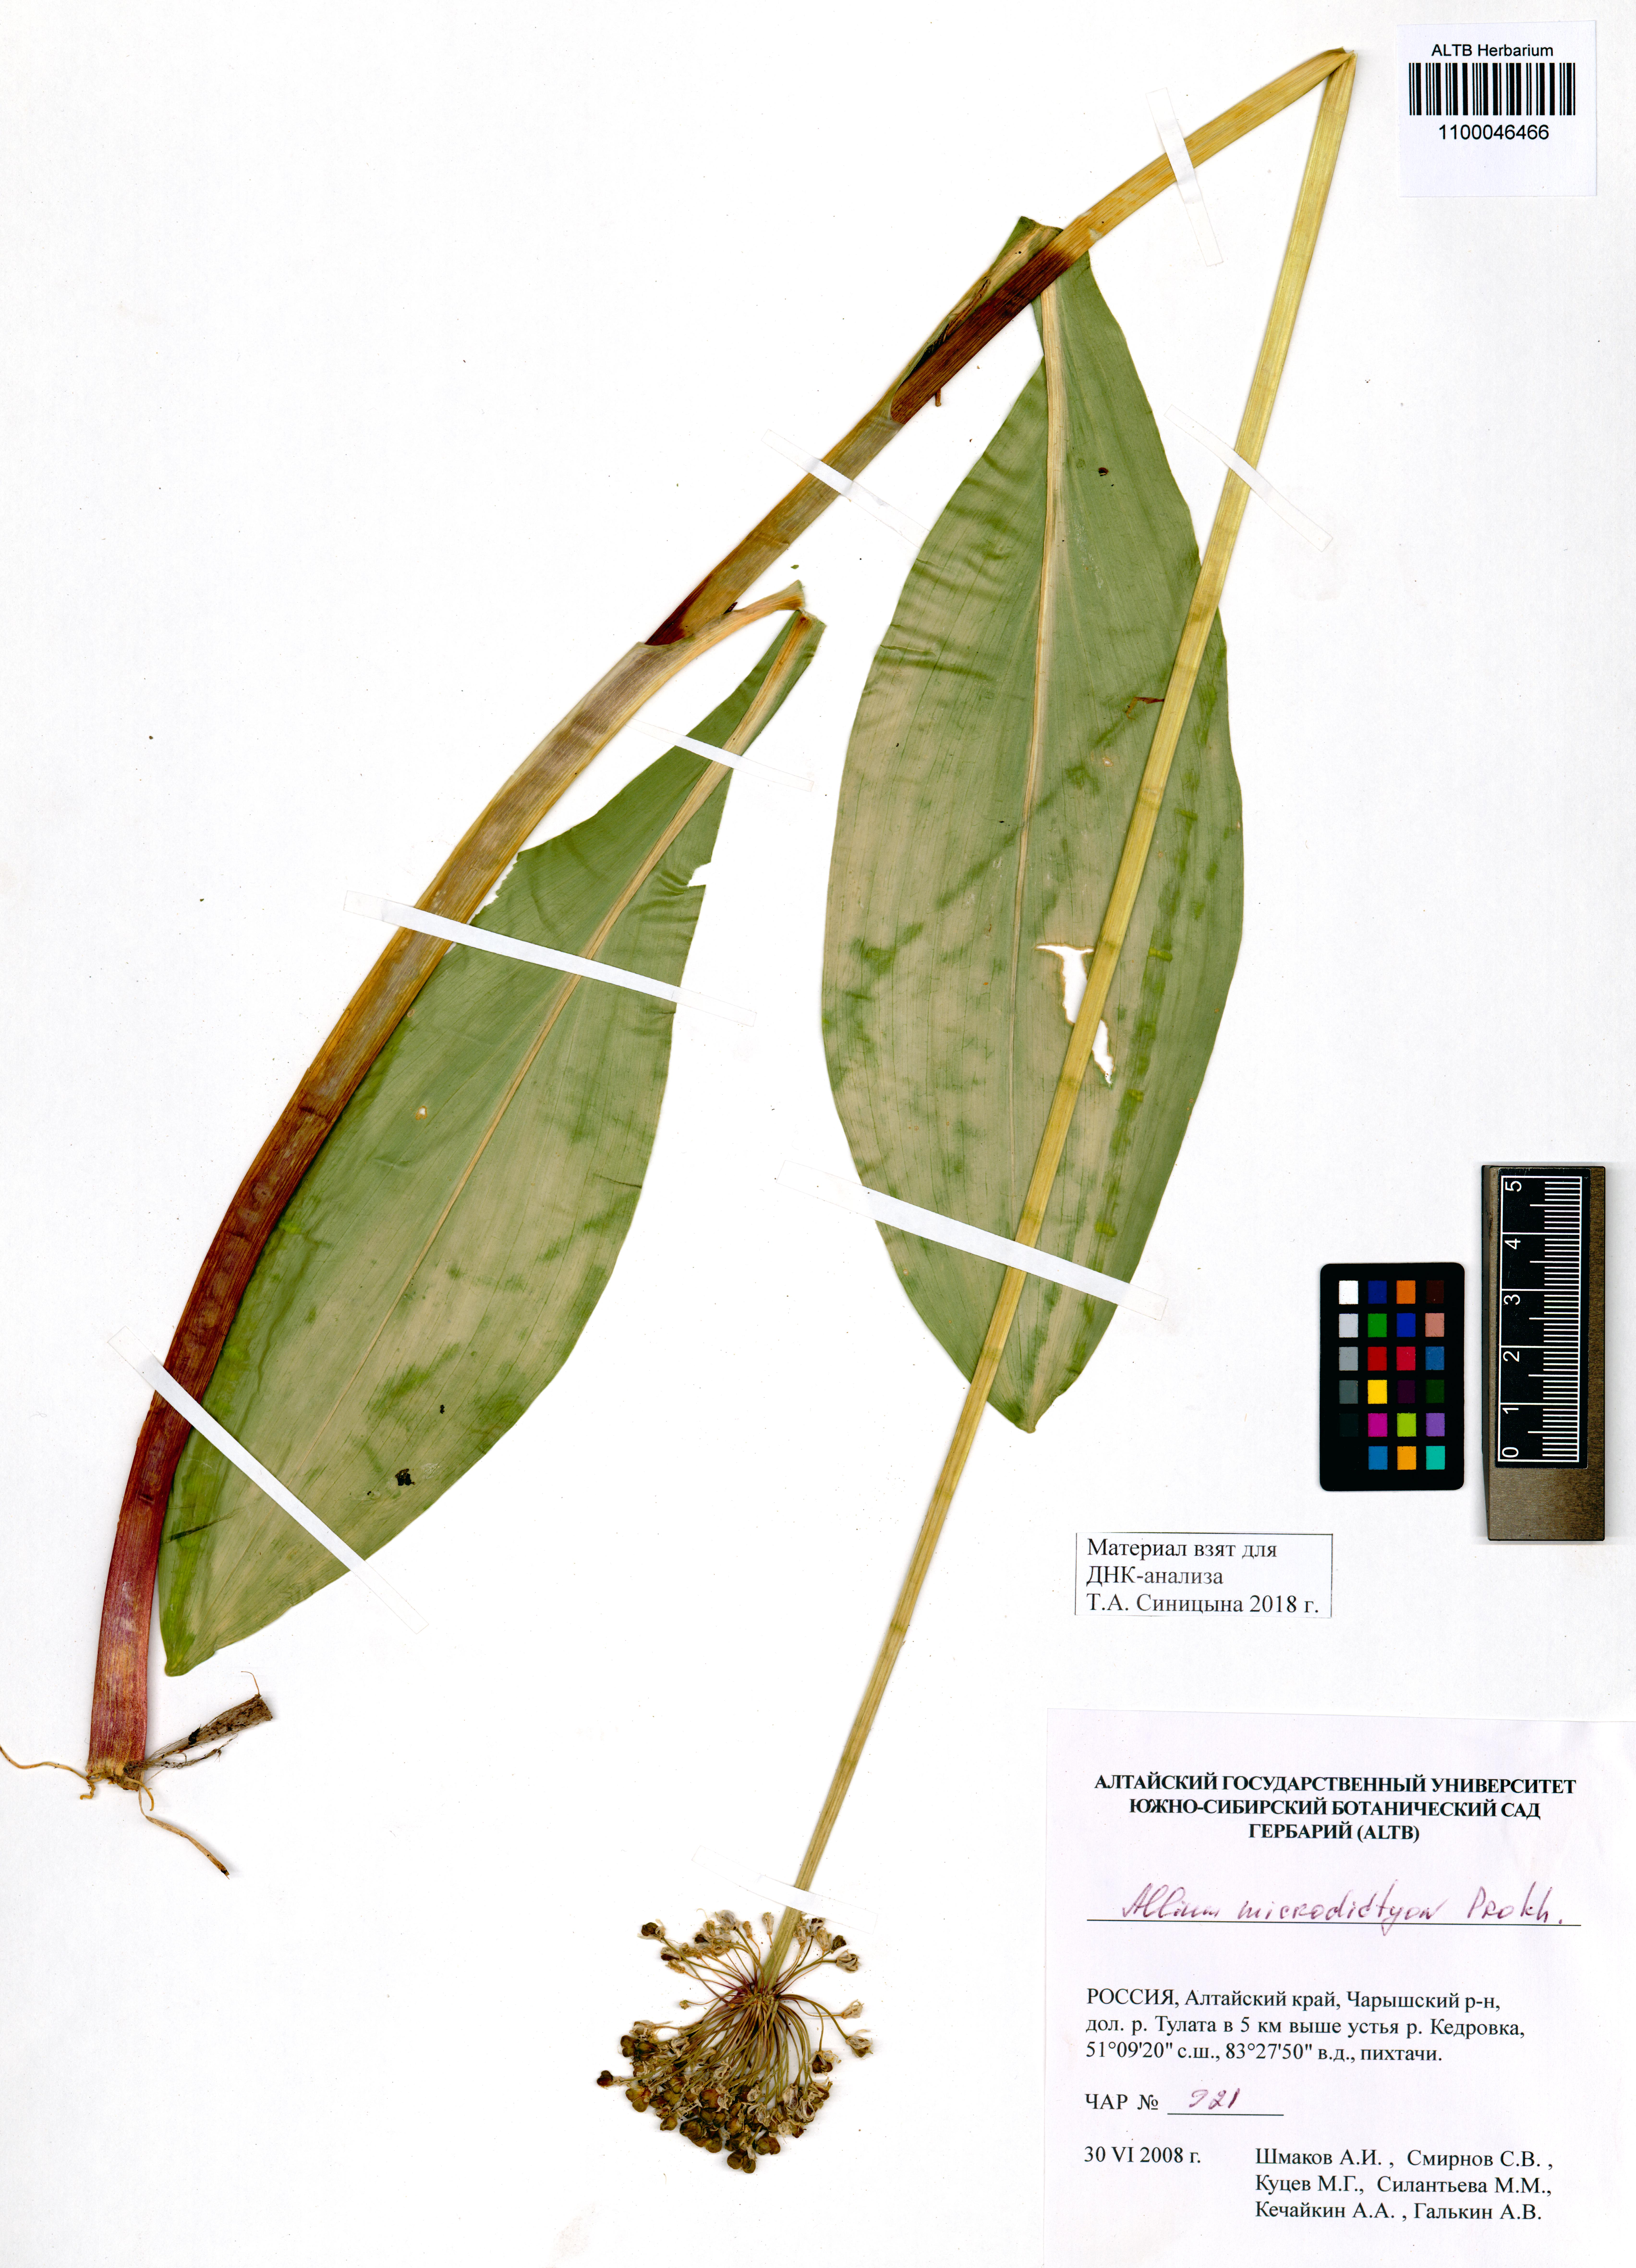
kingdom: Plantae
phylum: Tracheophyta
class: Liliopsida
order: Asparagales
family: Amaryllidaceae
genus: Allium
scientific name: Allium microdictyon
